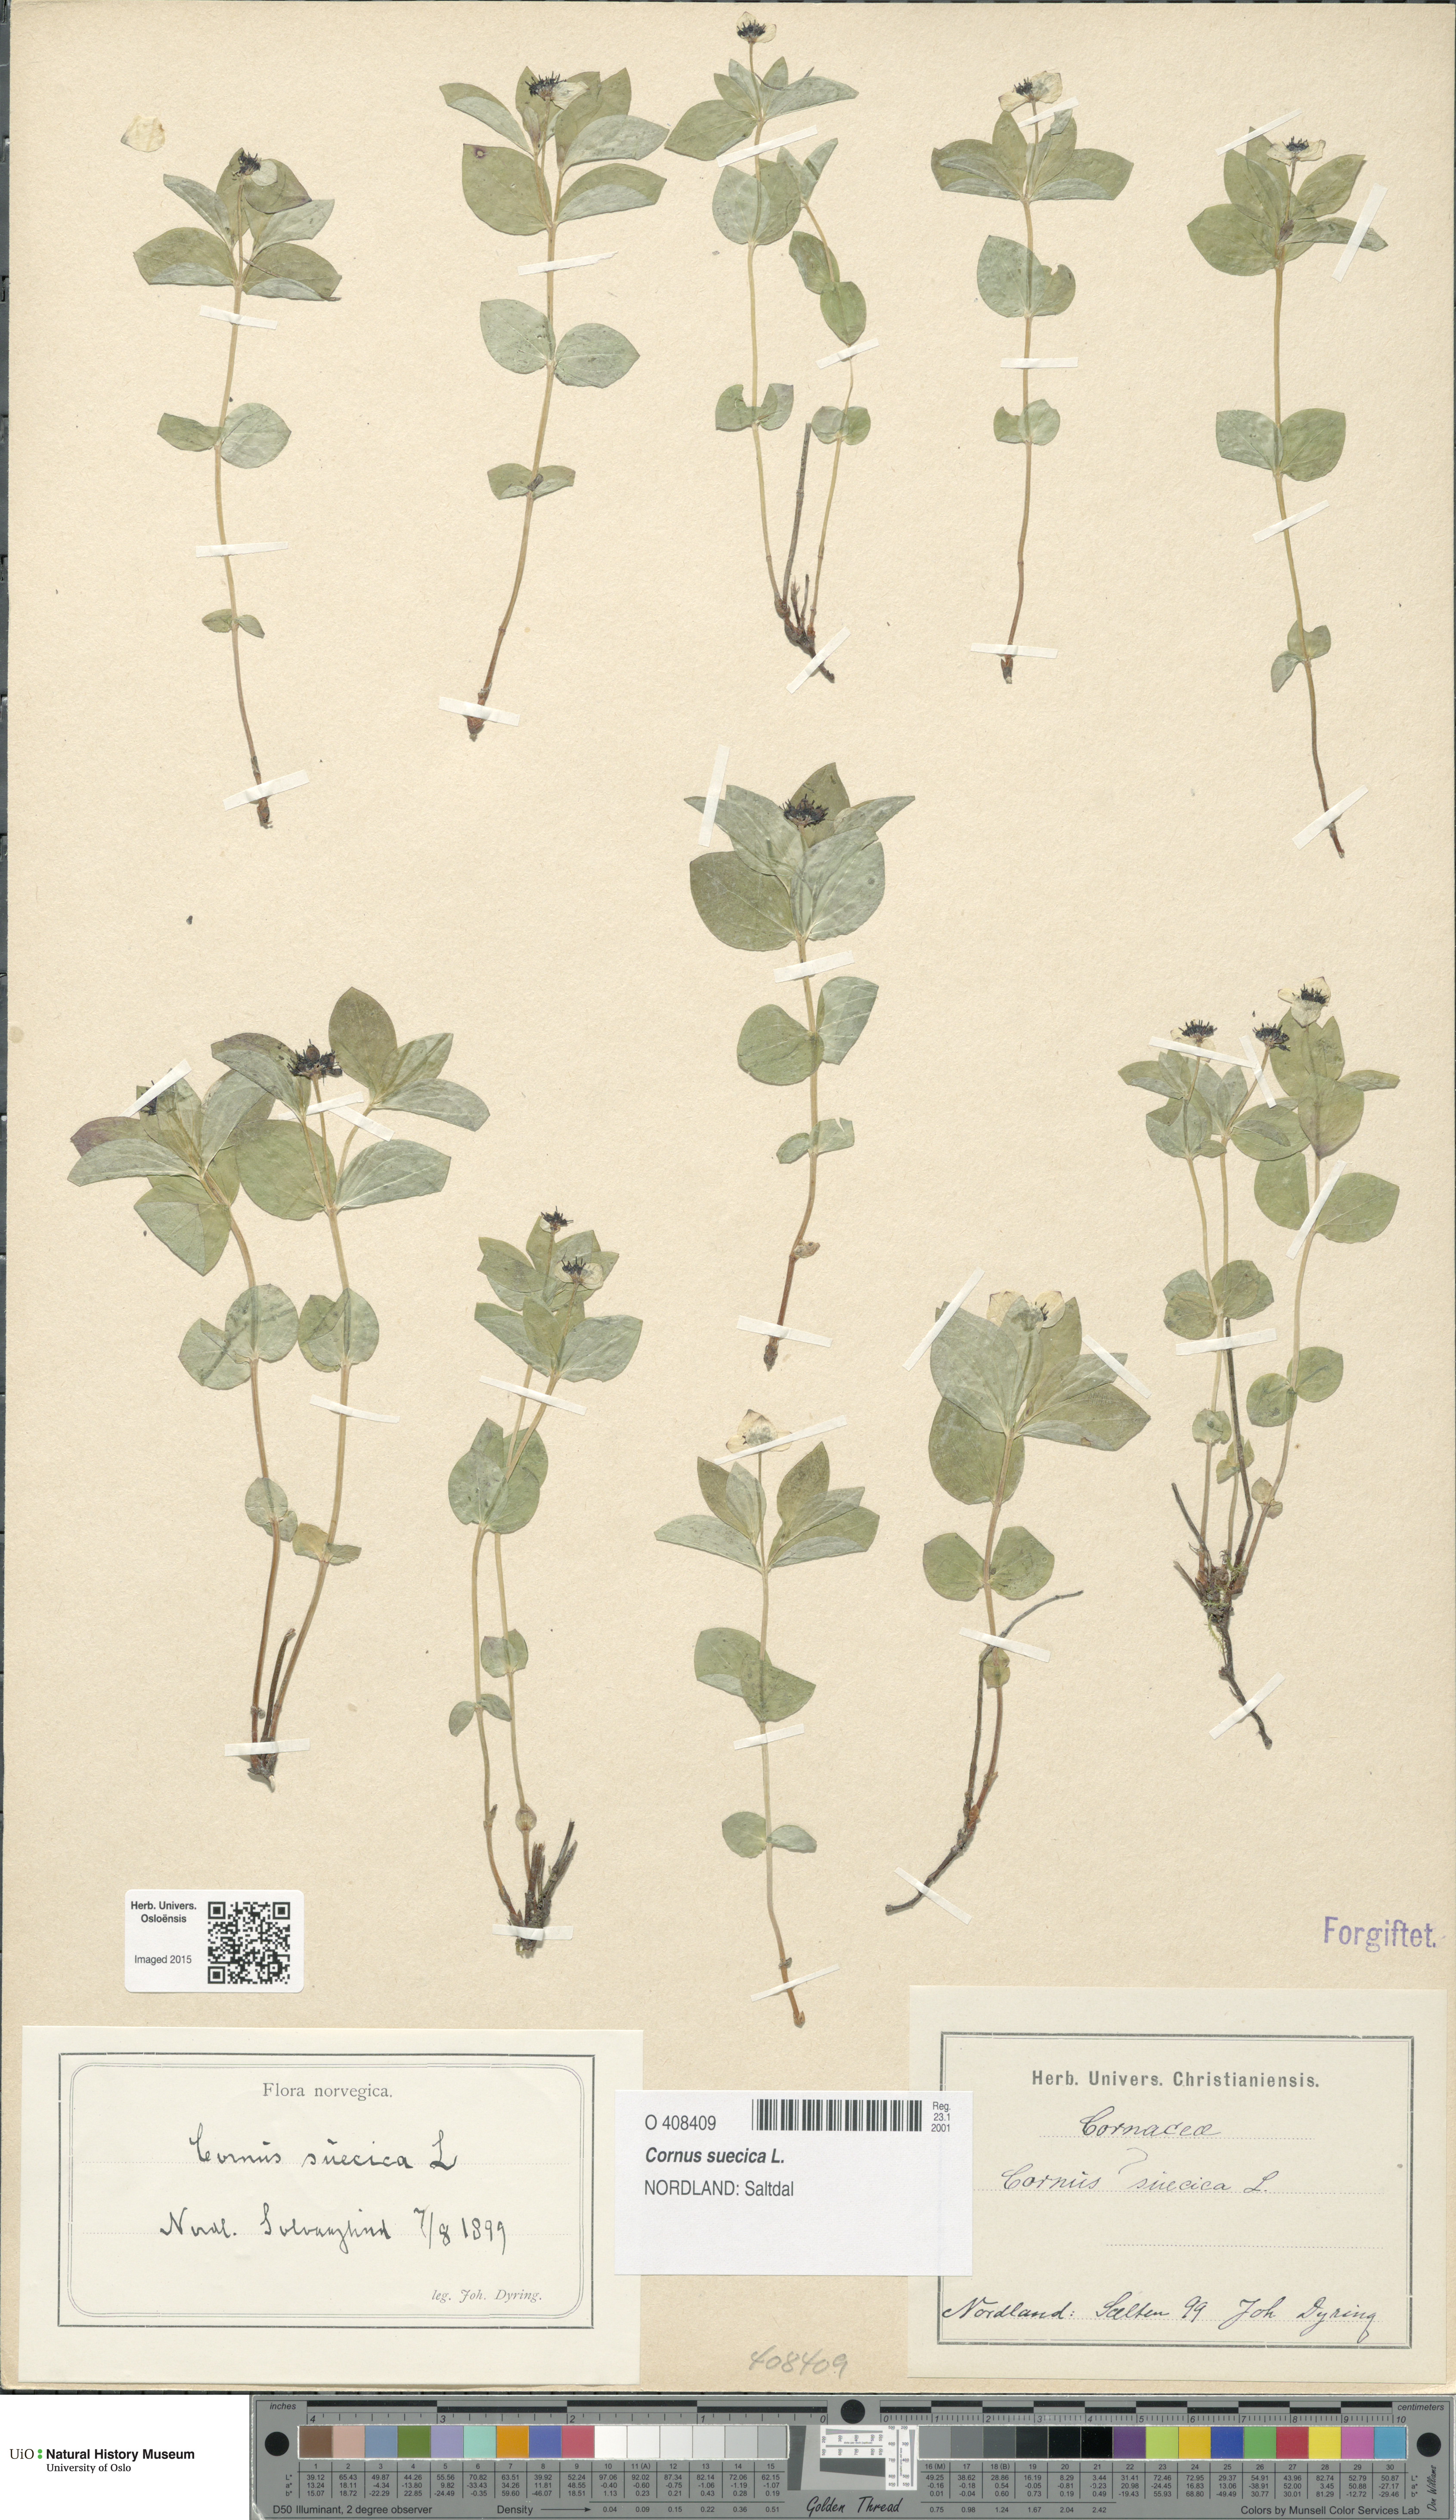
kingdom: Plantae
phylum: Tracheophyta
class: Magnoliopsida
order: Cornales
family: Cornaceae
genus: Cornus
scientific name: Cornus suecica
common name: Dwarf cornel
